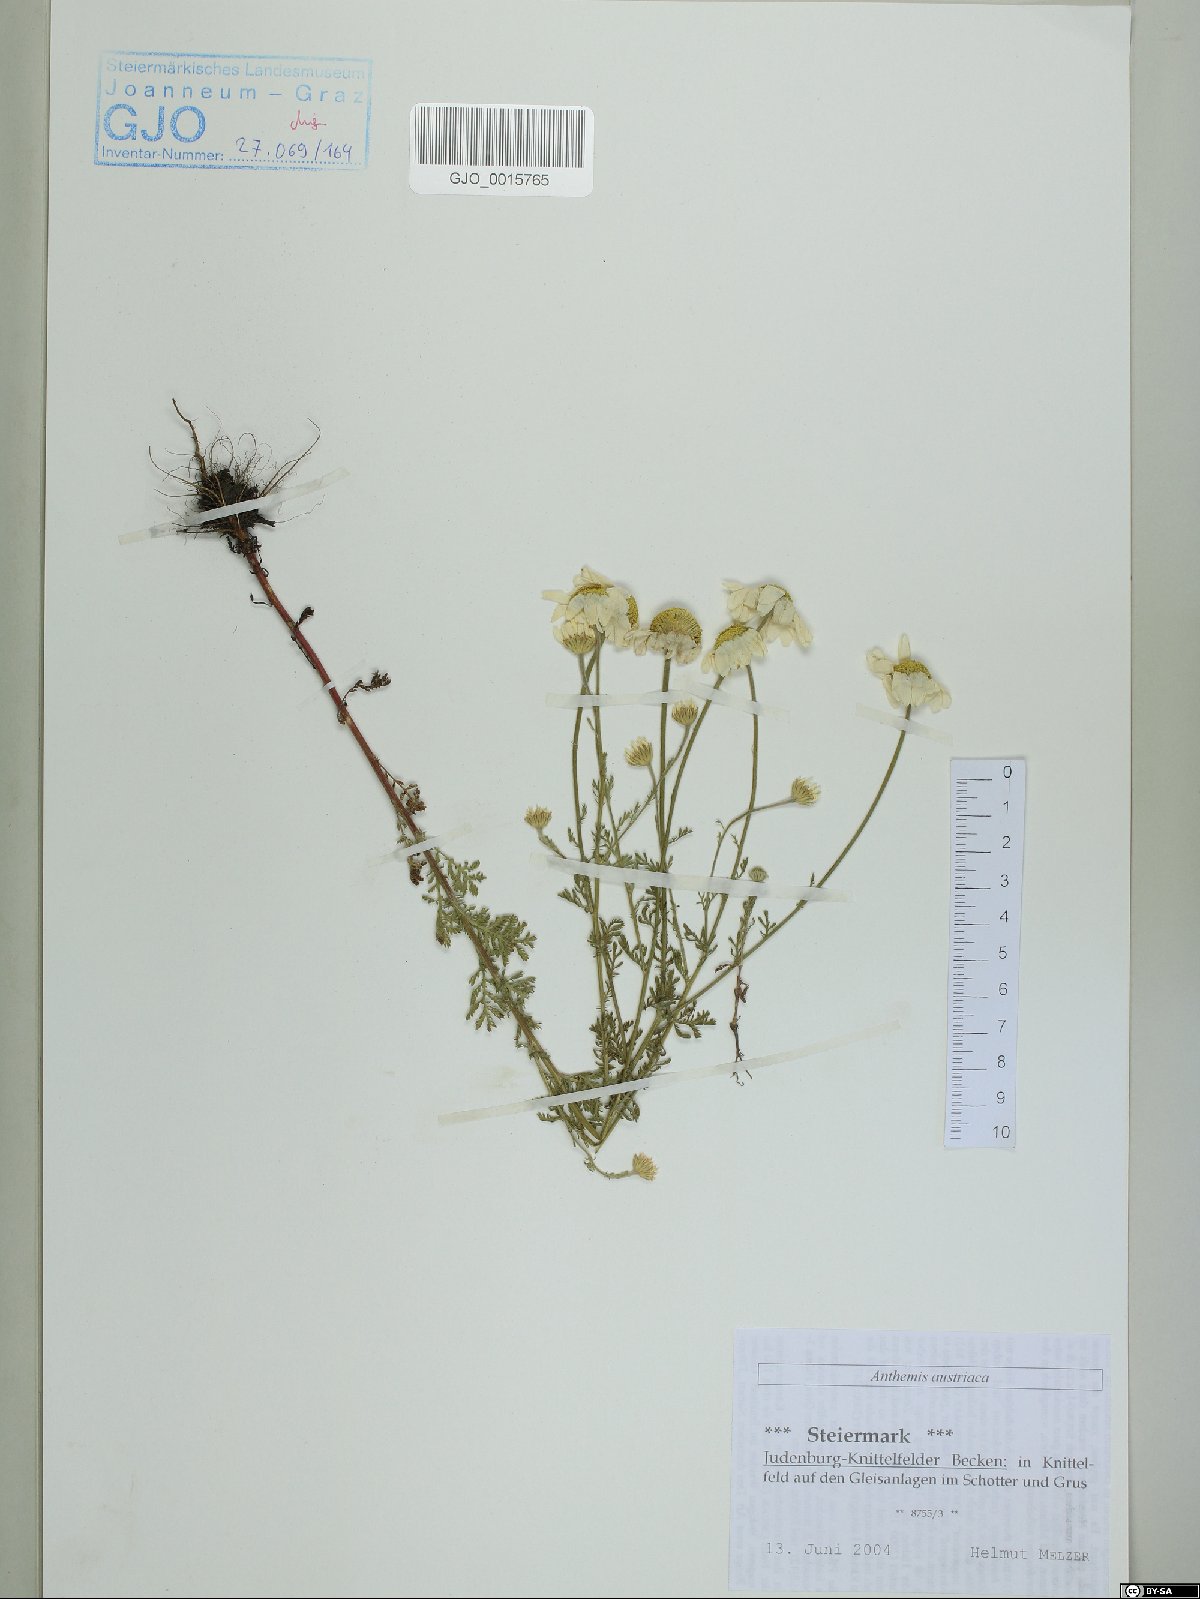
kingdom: Plantae
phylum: Tracheophyta
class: Magnoliopsida
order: Asterales
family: Asteraceae
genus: Cota
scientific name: Cota austriaca
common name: Austrian chamomile
